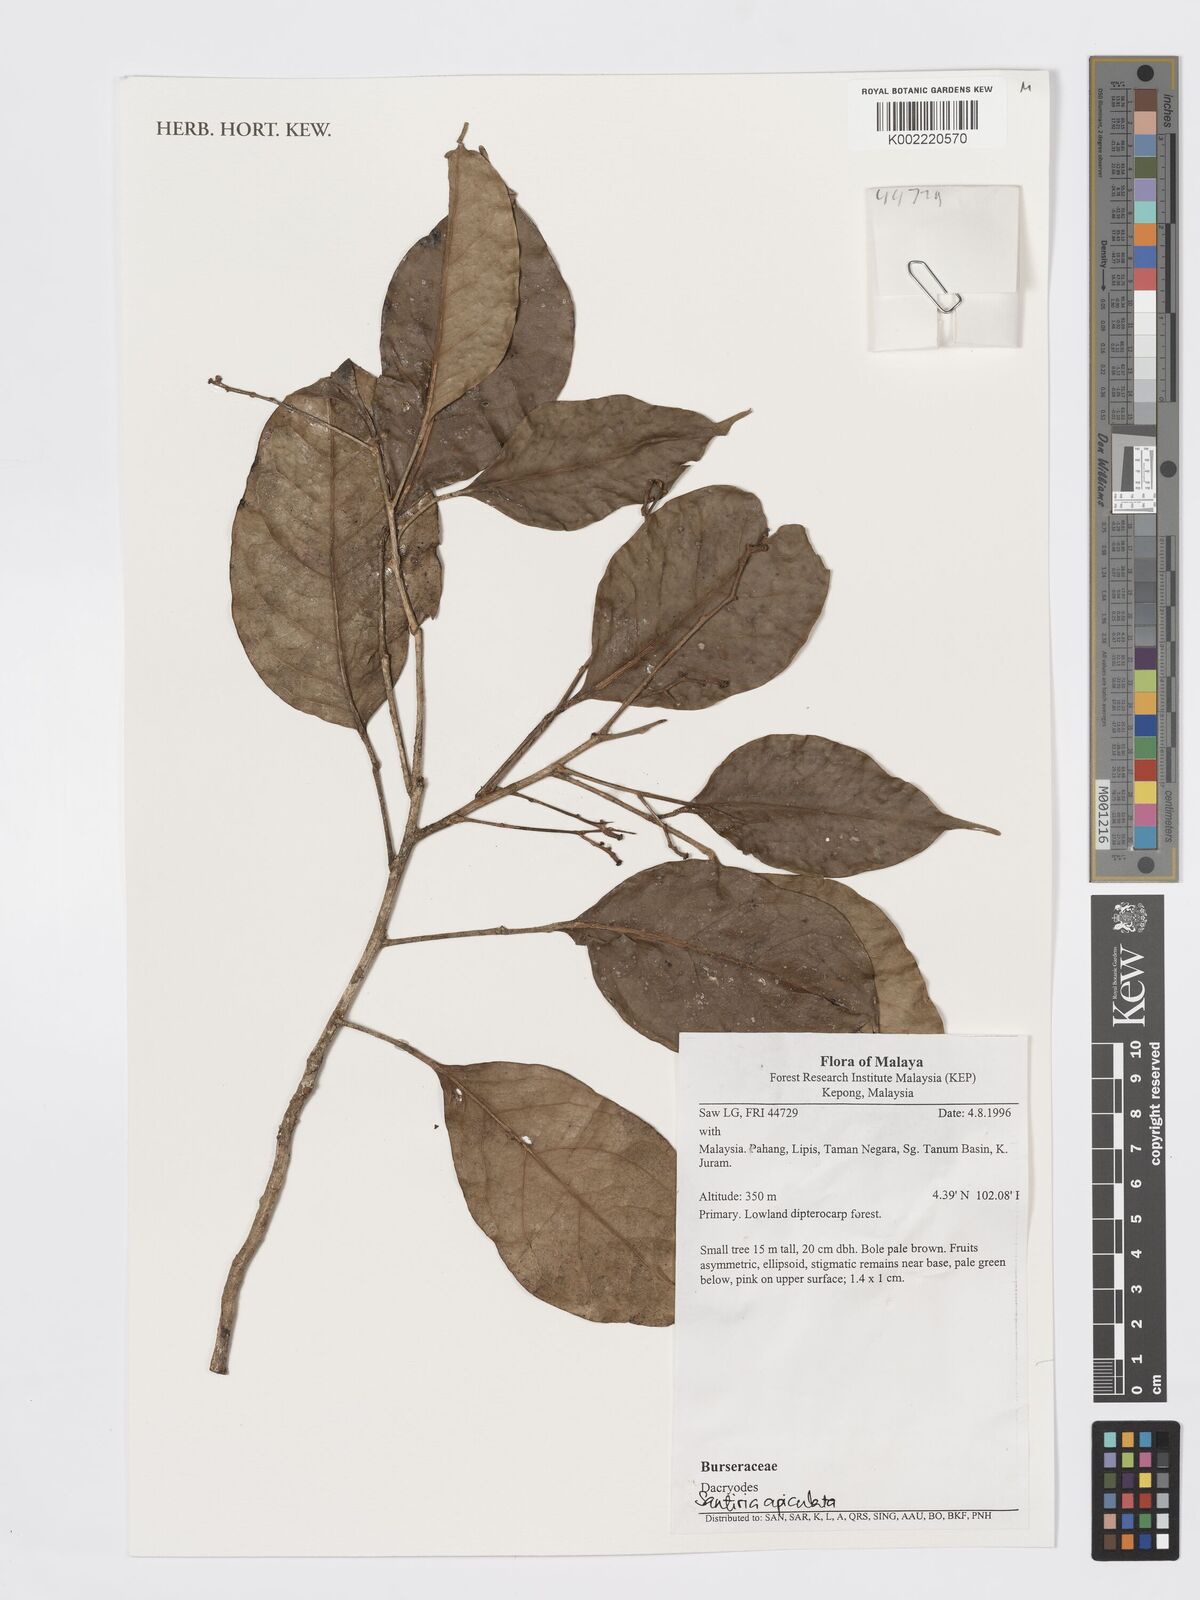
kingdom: Plantae
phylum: Tracheophyta
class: Magnoliopsida
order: Sapindales
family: Burseraceae
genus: Santiria
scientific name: Santiria apiculata
